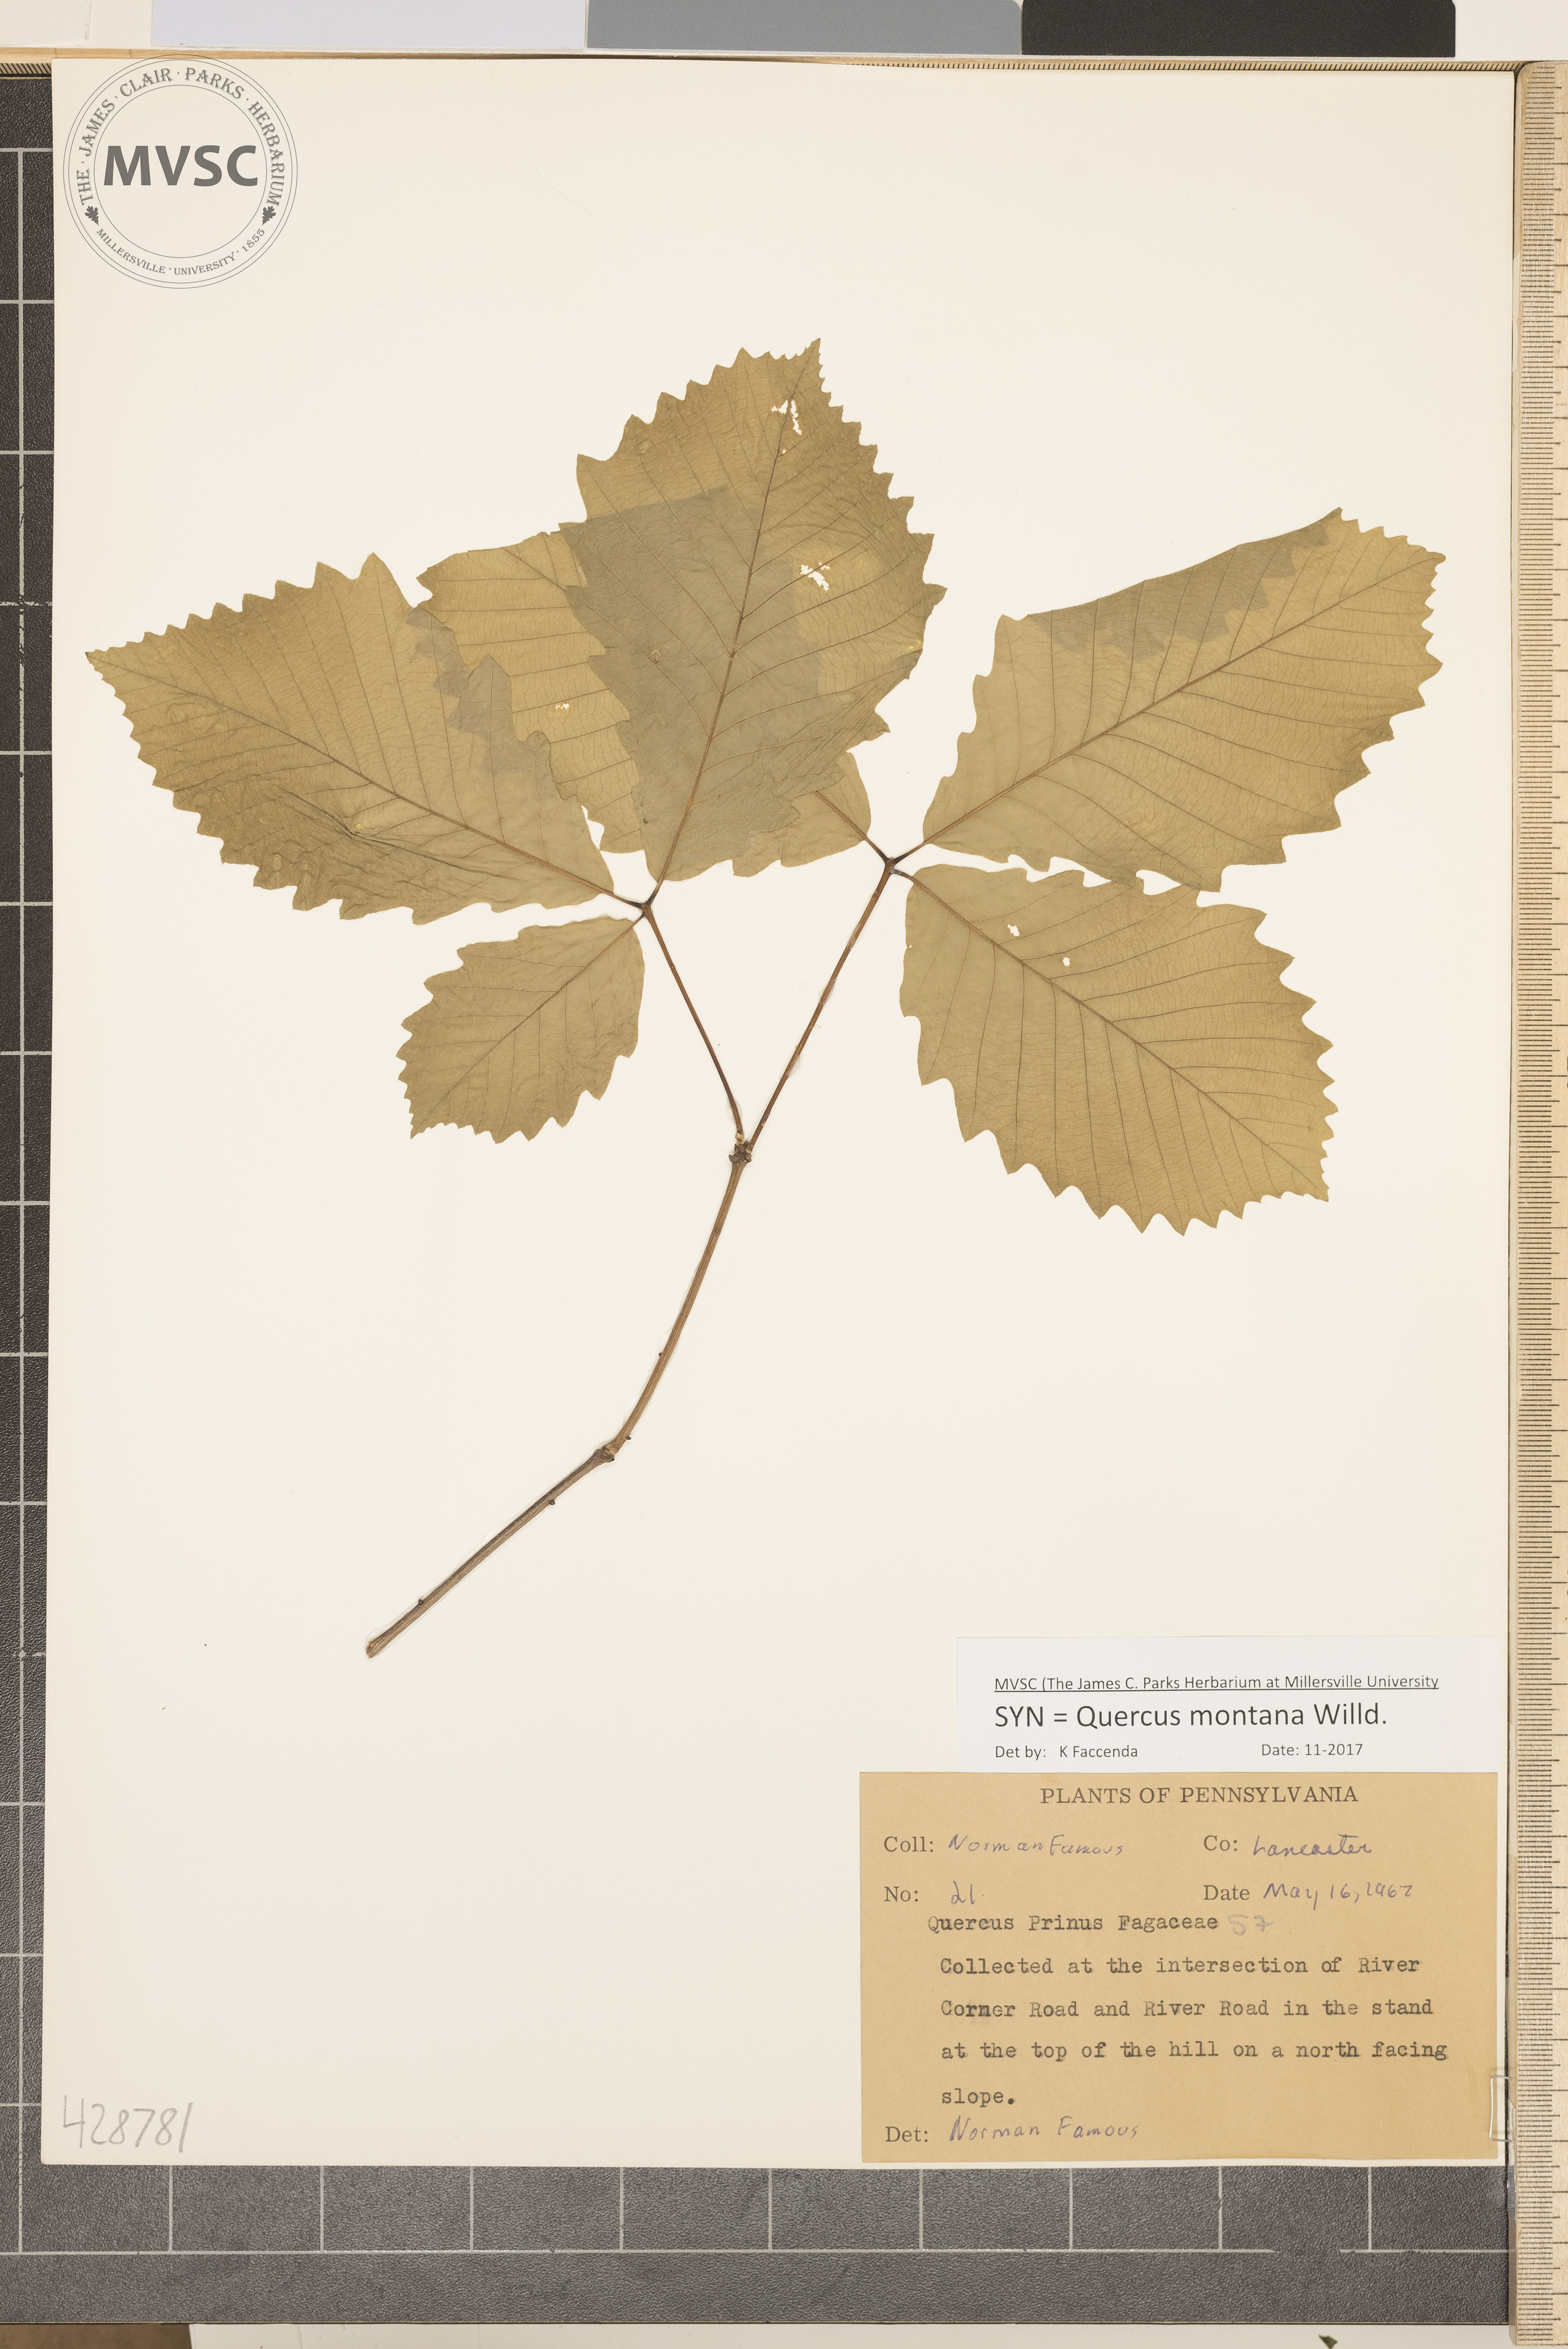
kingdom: Plantae
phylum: Tracheophyta
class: Magnoliopsida
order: Fagales
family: Fagaceae
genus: Quercus
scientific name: Quercus montana
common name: Chestnut oak
